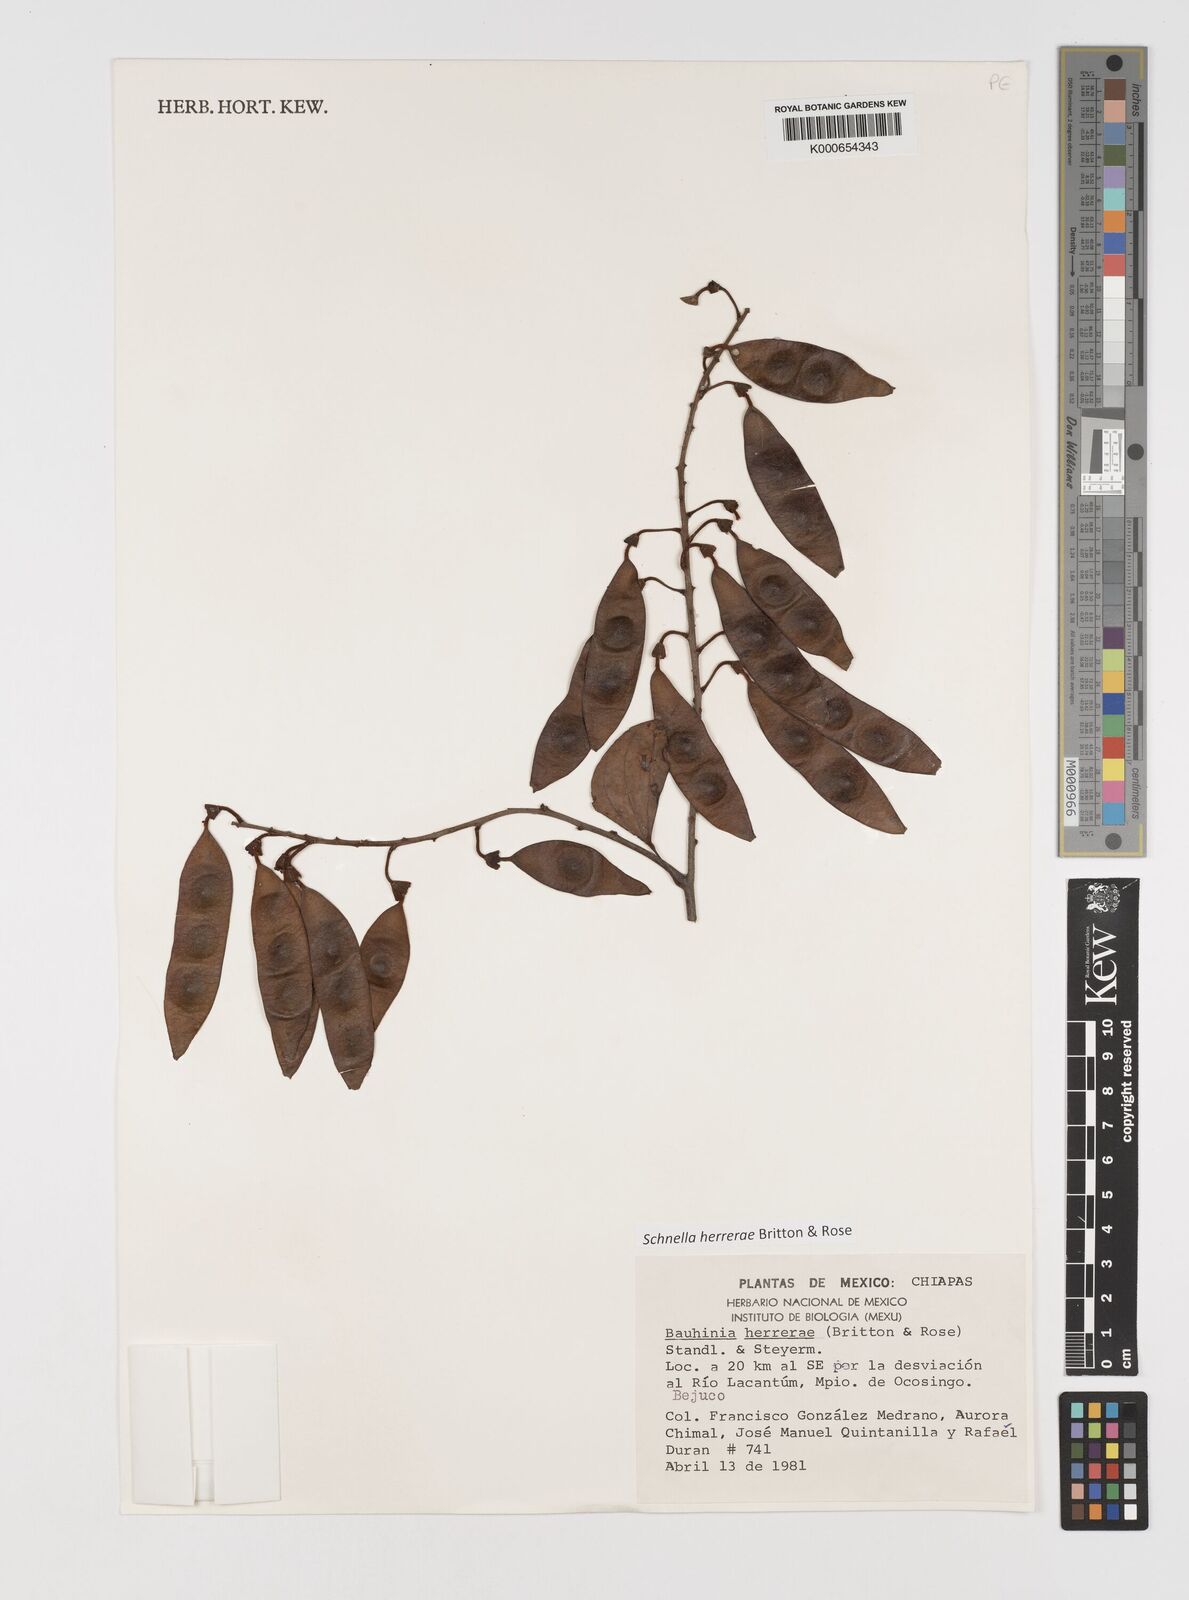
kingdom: Plantae
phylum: Tracheophyta
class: Magnoliopsida
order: Fabales
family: Fabaceae
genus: Schnella
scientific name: Schnella herrerae
